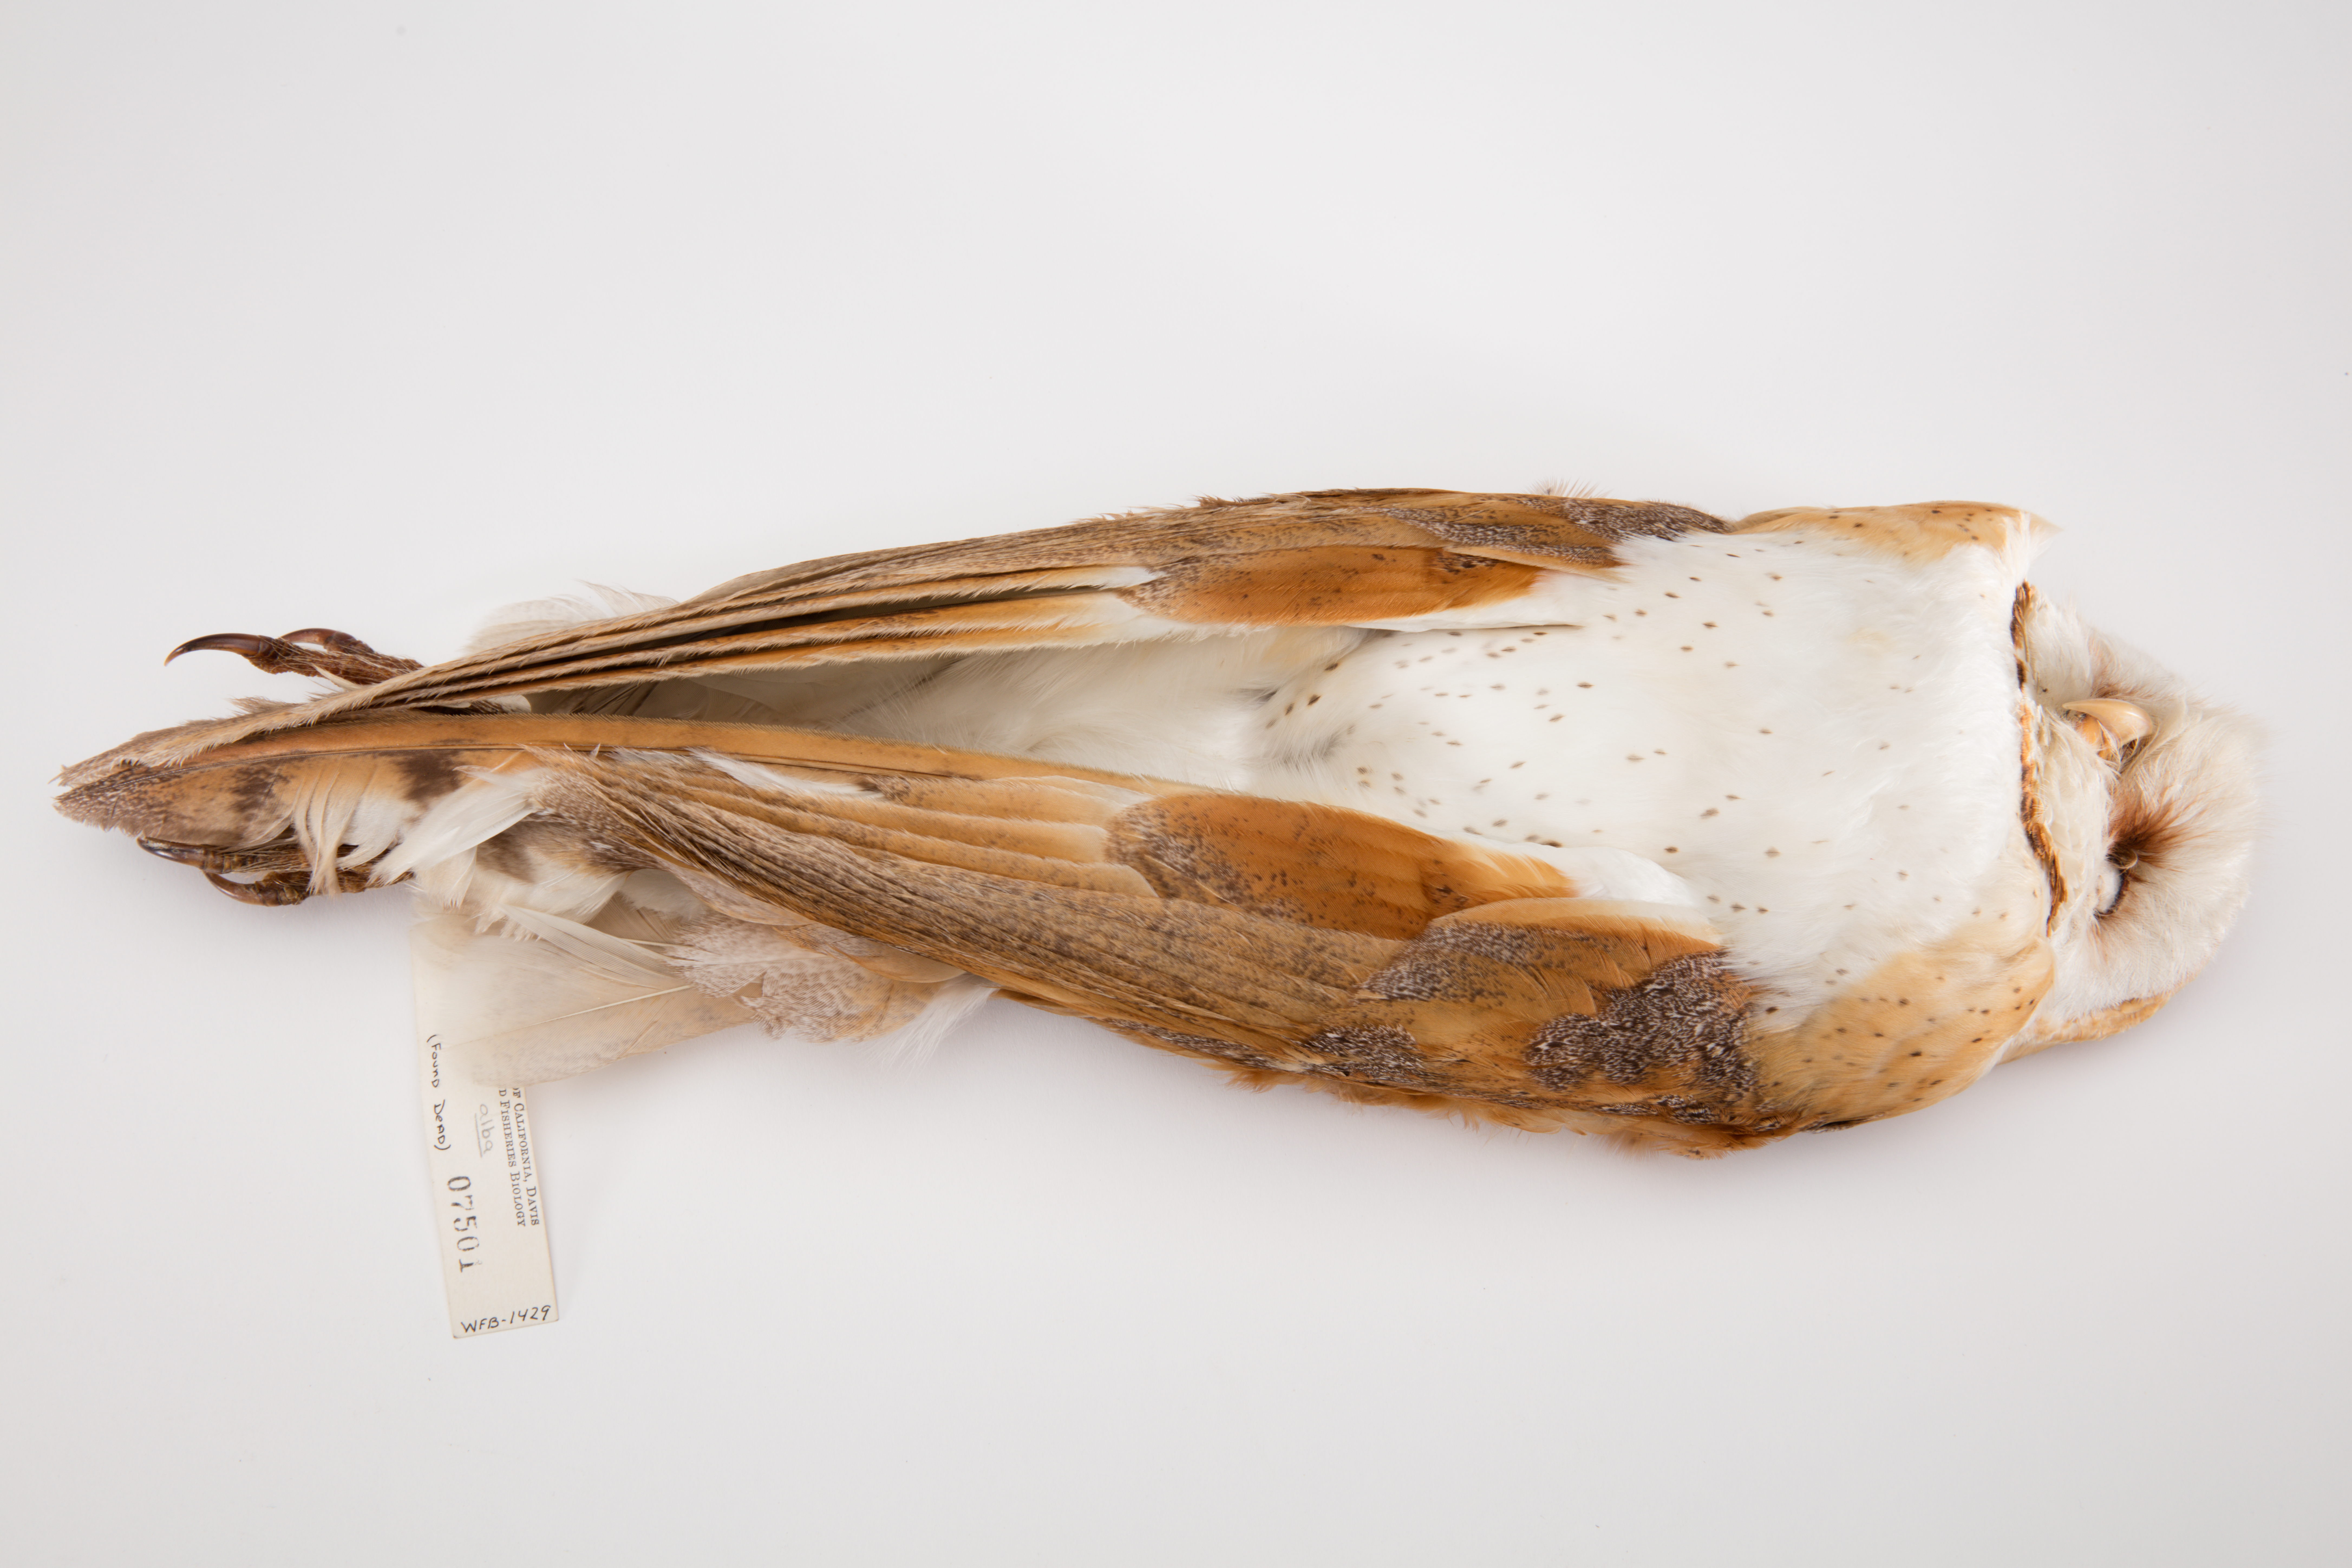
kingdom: Animalia
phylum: Chordata
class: Aves
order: Strigiformes
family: Tytonidae
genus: Tyto
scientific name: Tyto alba
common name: Barn owl
